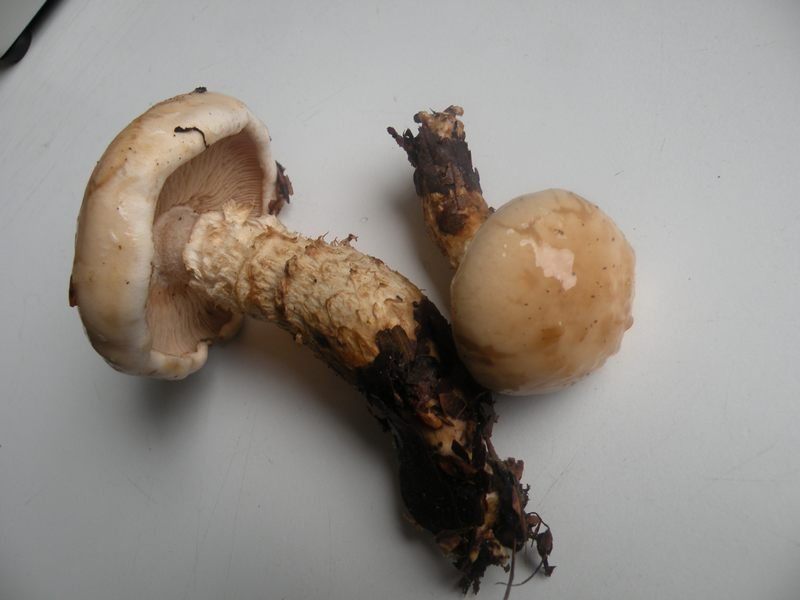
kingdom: Fungi
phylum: Basidiomycota
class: Agaricomycetes
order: Agaricales
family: Hymenogastraceae
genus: Hebeloma
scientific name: Hebeloma radicosum
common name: pælerods-tåreblad
